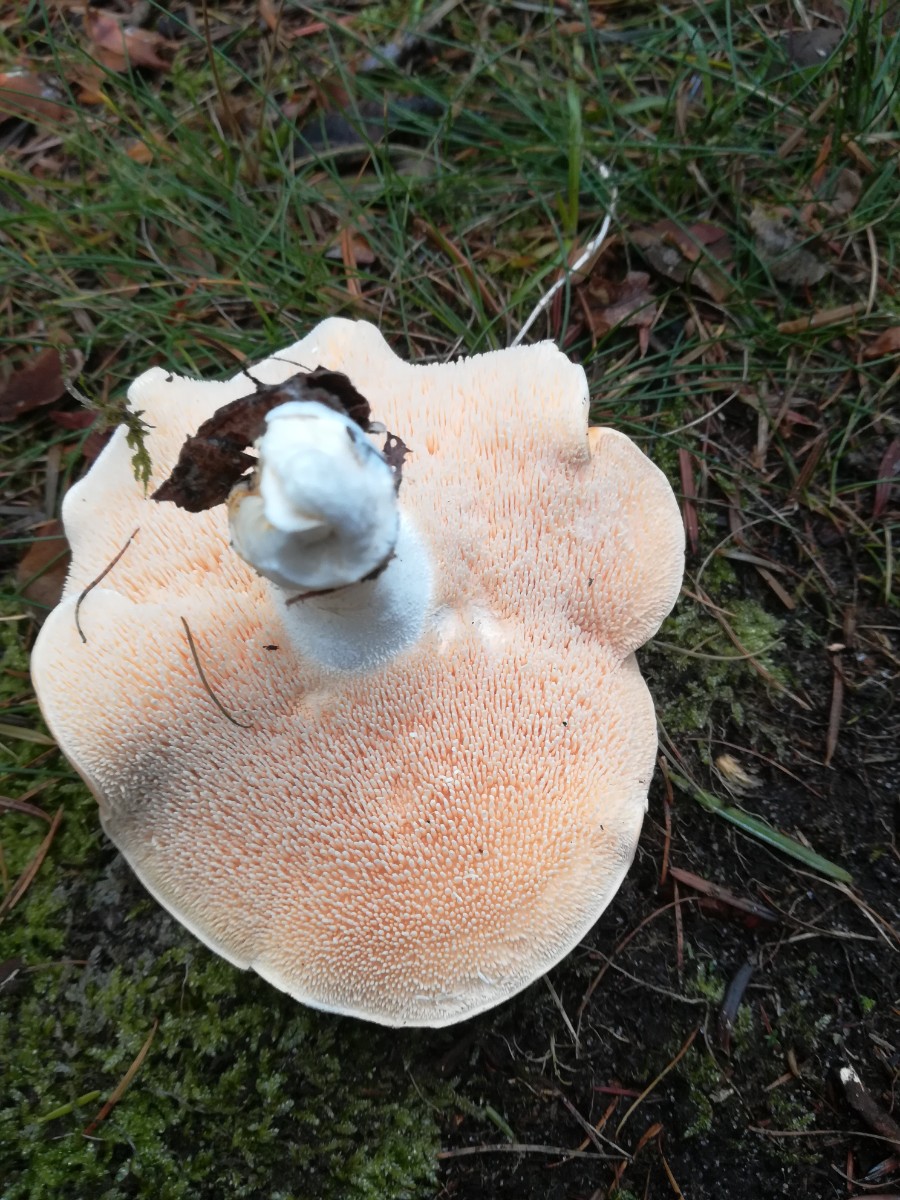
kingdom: Fungi
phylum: Basidiomycota
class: Agaricomycetes
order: Cantharellales
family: Hydnaceae
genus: Hydnum
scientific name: Hydnum repandum
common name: almindelig pigsvamp
